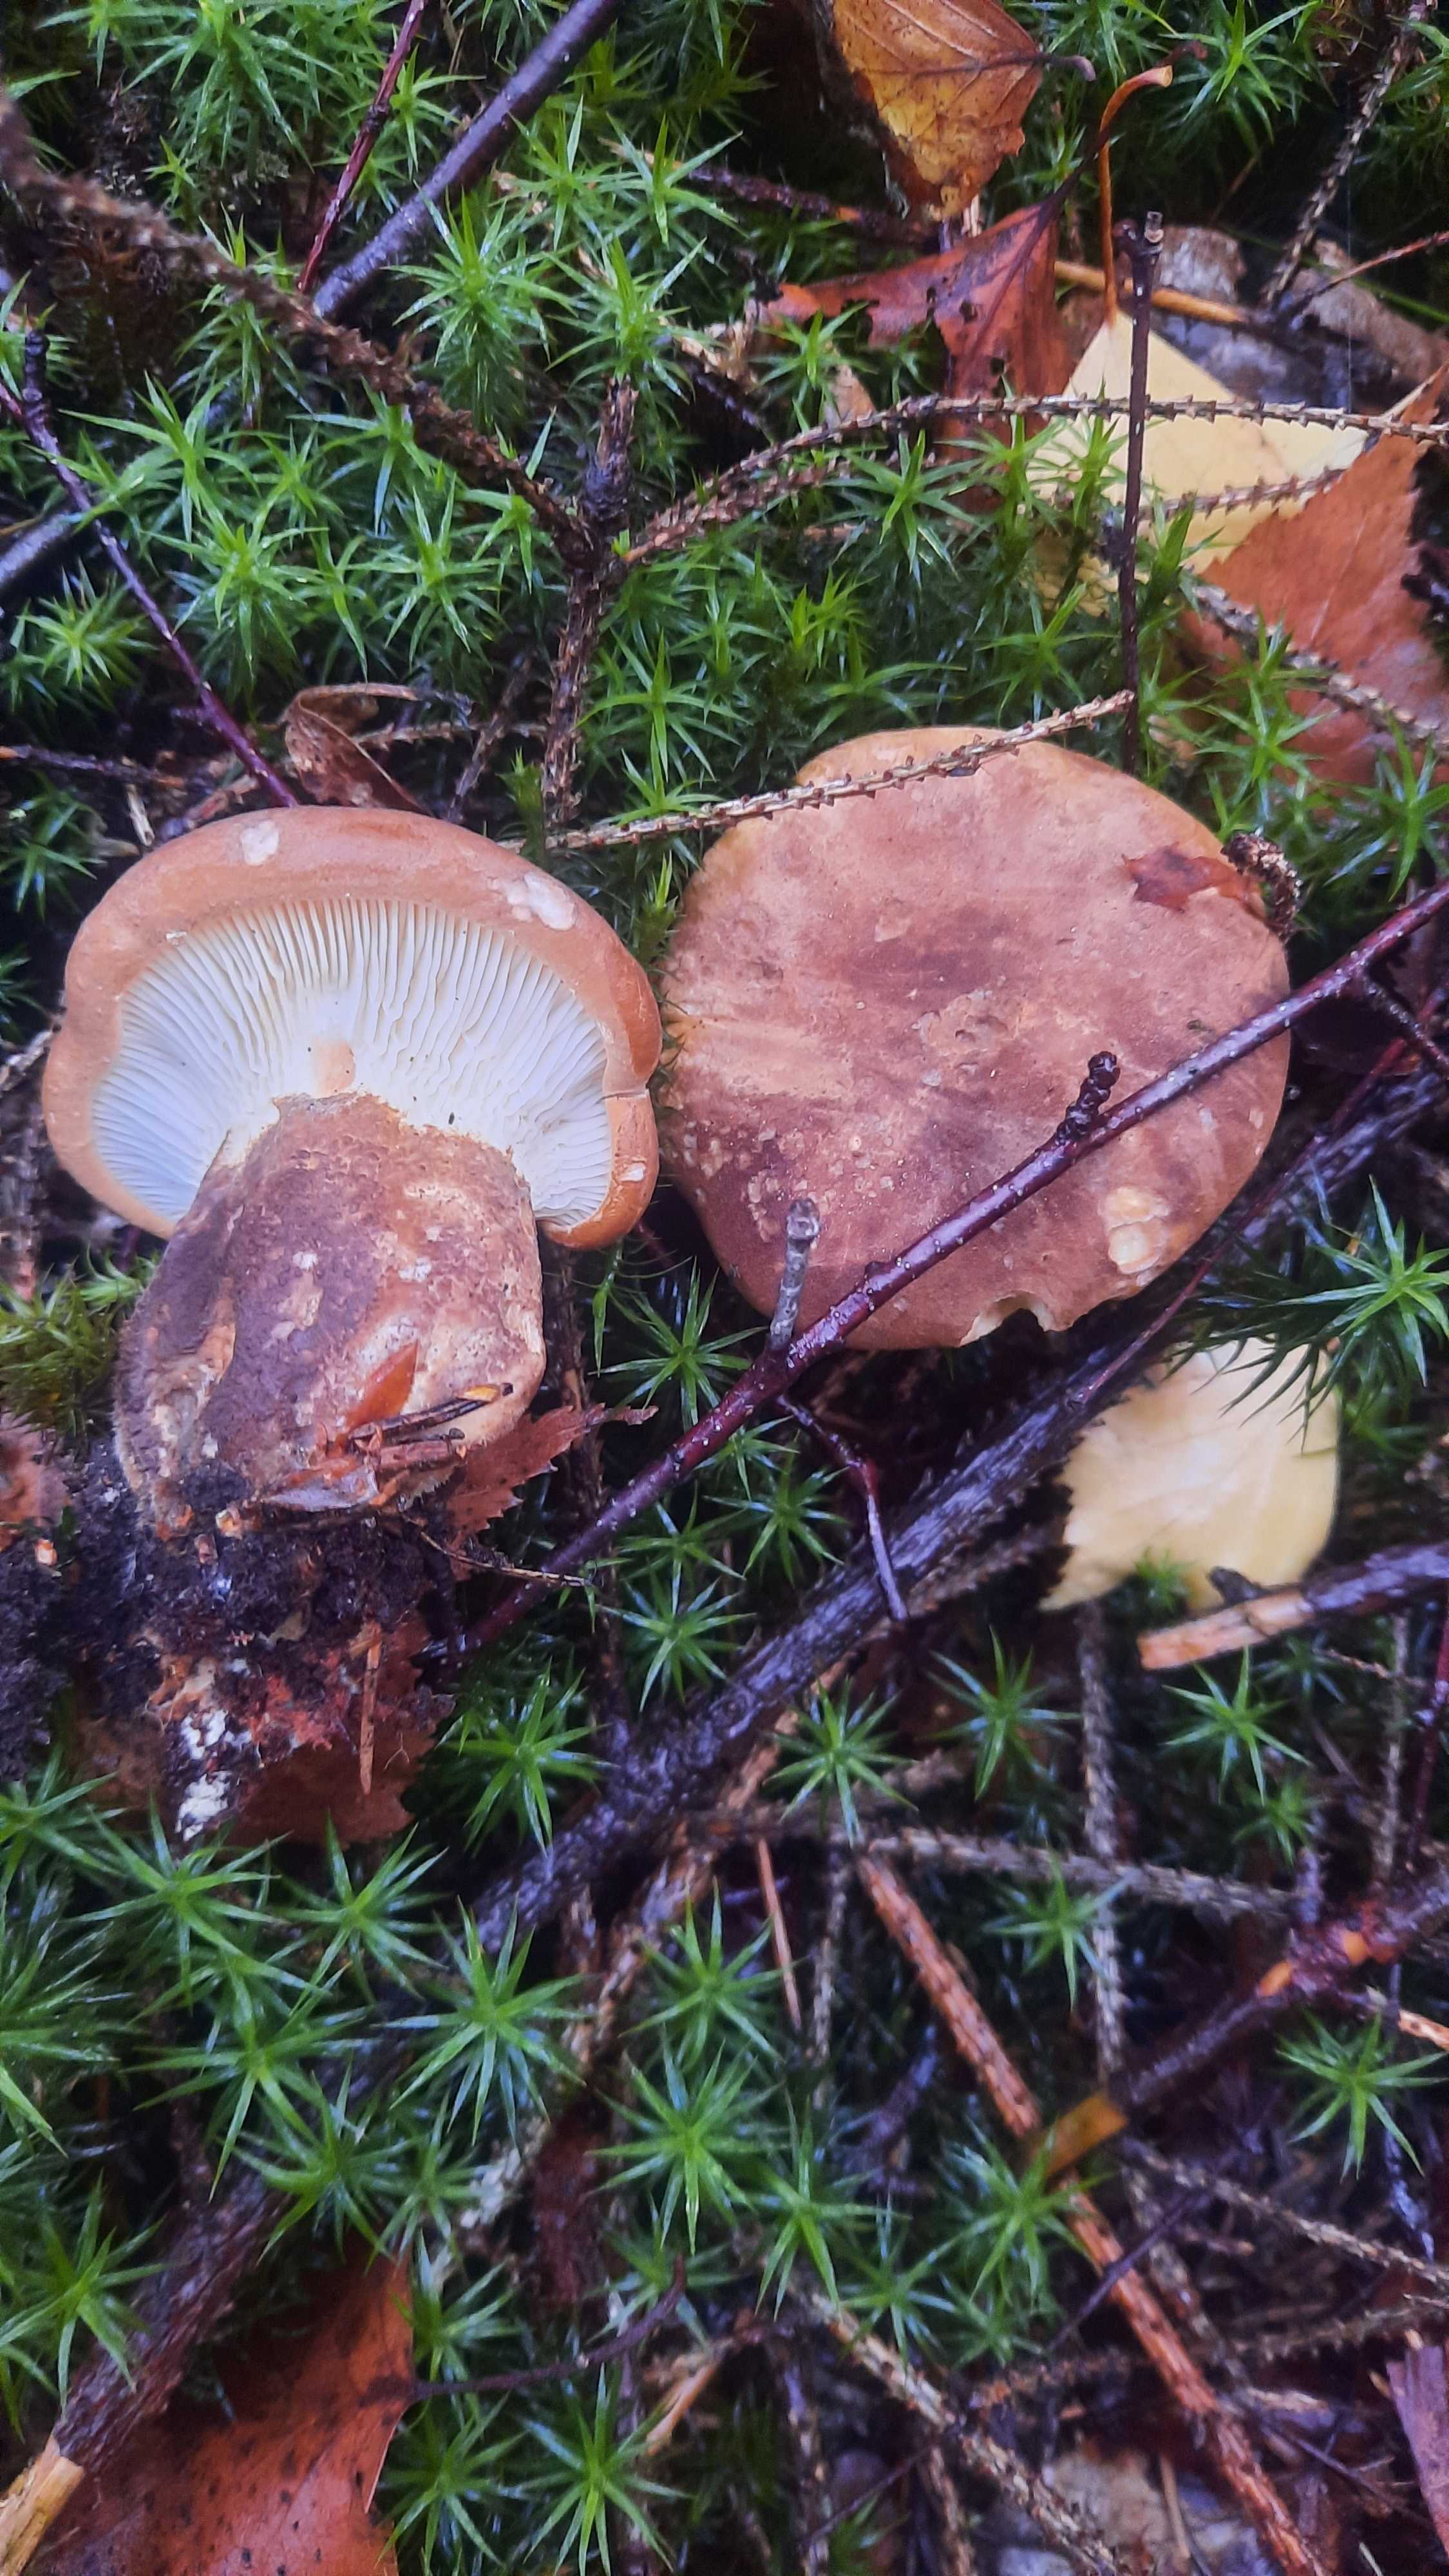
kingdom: Fungi
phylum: Basidiomycota
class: Agaricomycetes
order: Boletales
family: Tapinellaceae
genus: Tapinella
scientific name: Tapinella atrotomentosa
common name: sortfiltet viftesvamp
